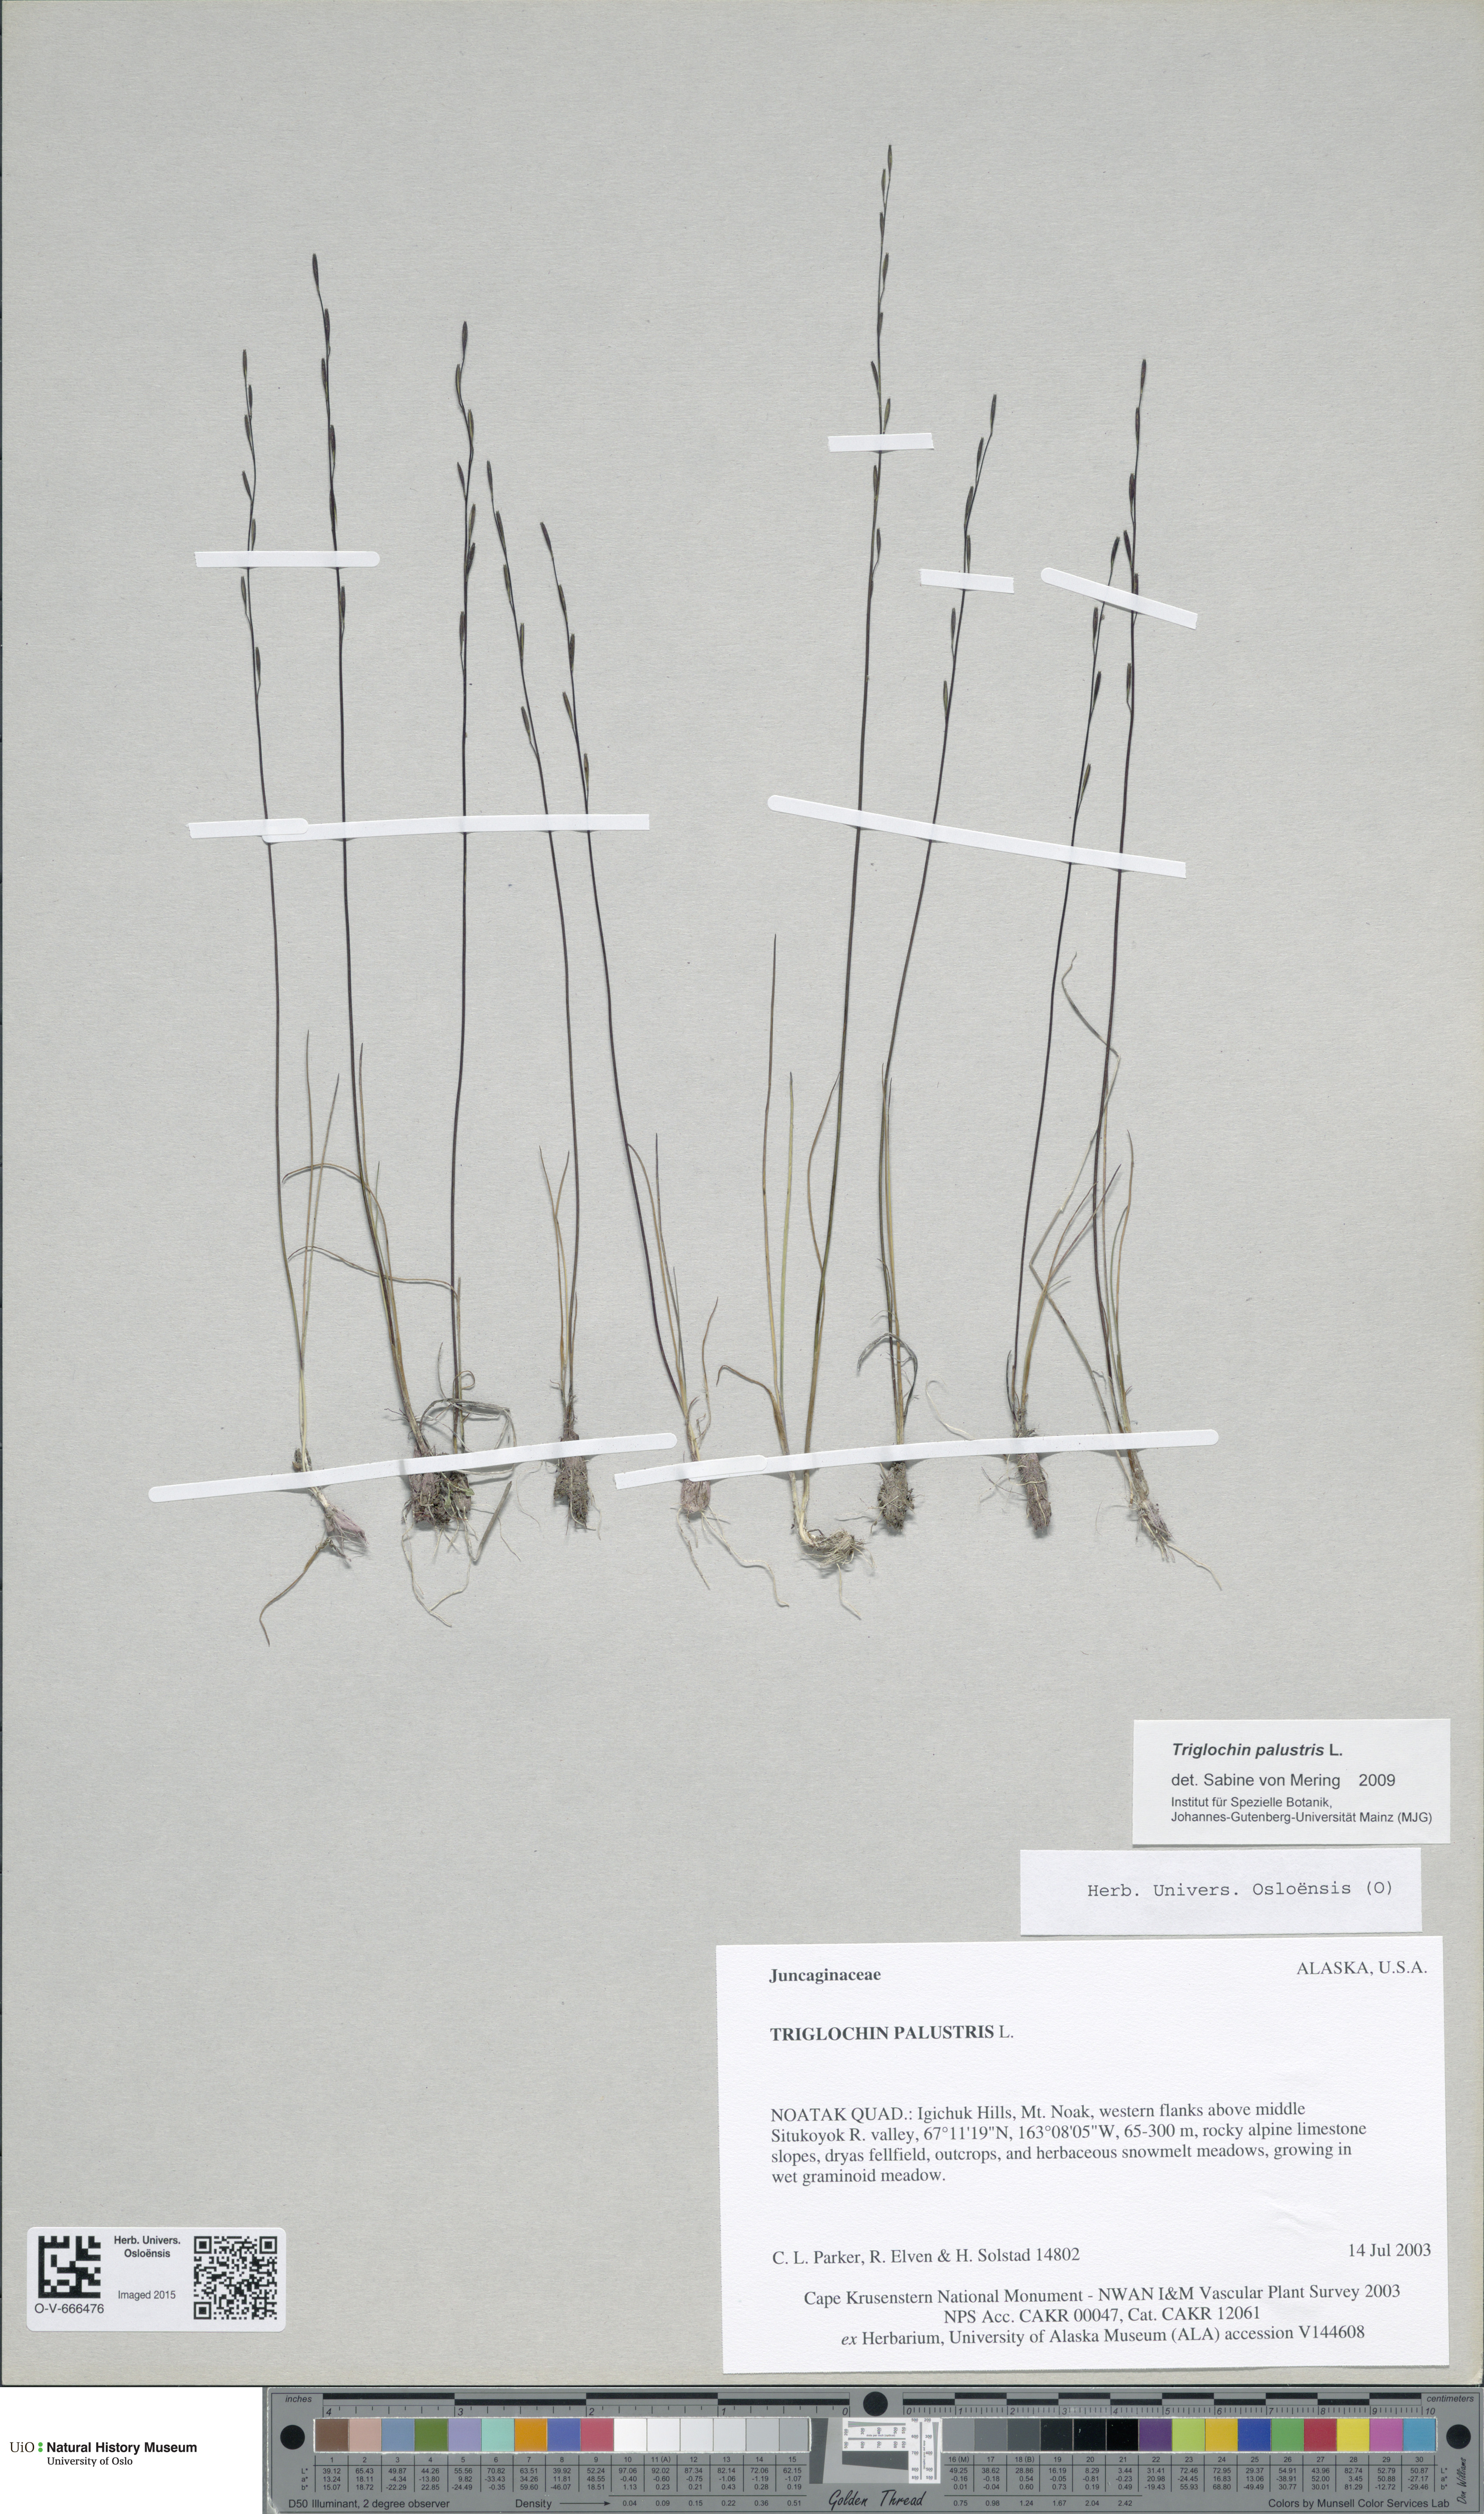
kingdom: Plantae
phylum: Tracheophyta
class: Liliopsida
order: Alismatales
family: Juncaginaceae
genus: Triglochin
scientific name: Triglochin palustris
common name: Marsh arrowgrass
